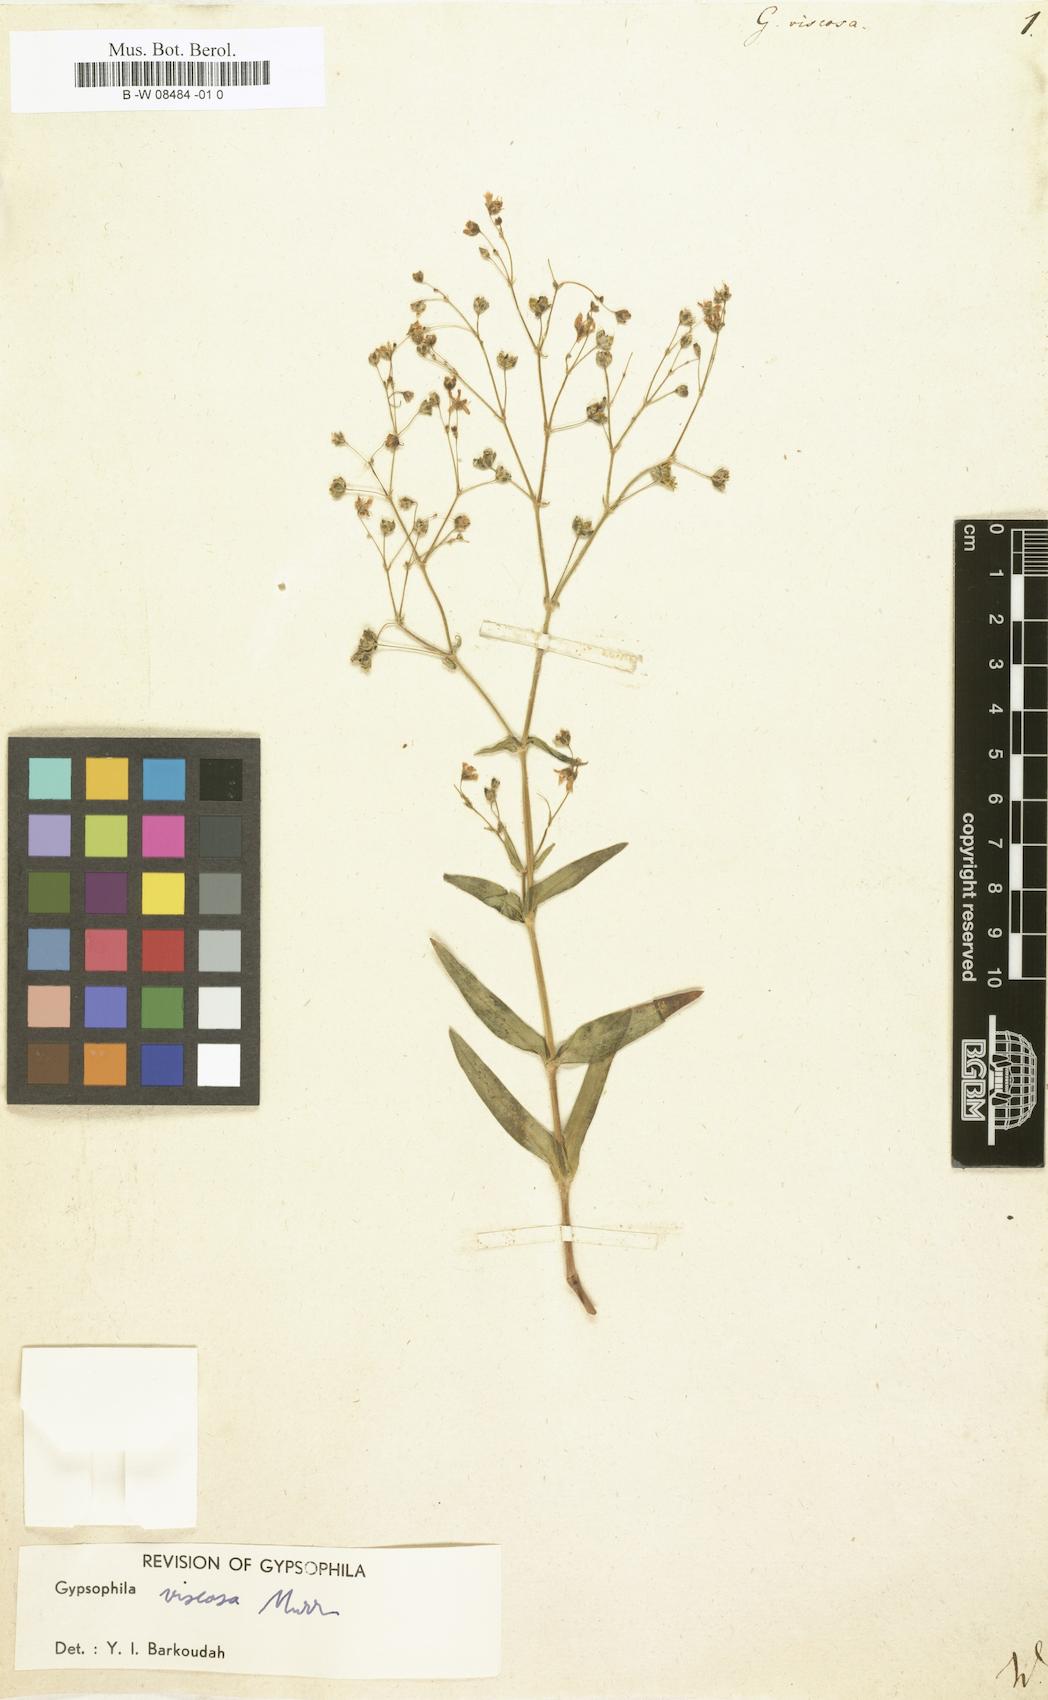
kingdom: Plantae
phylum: Tracheophyta
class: Magnoliopsida
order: Caryophyllales
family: Caryophyllaceae
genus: Gypsophila
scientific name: Gypsophila viscosa
